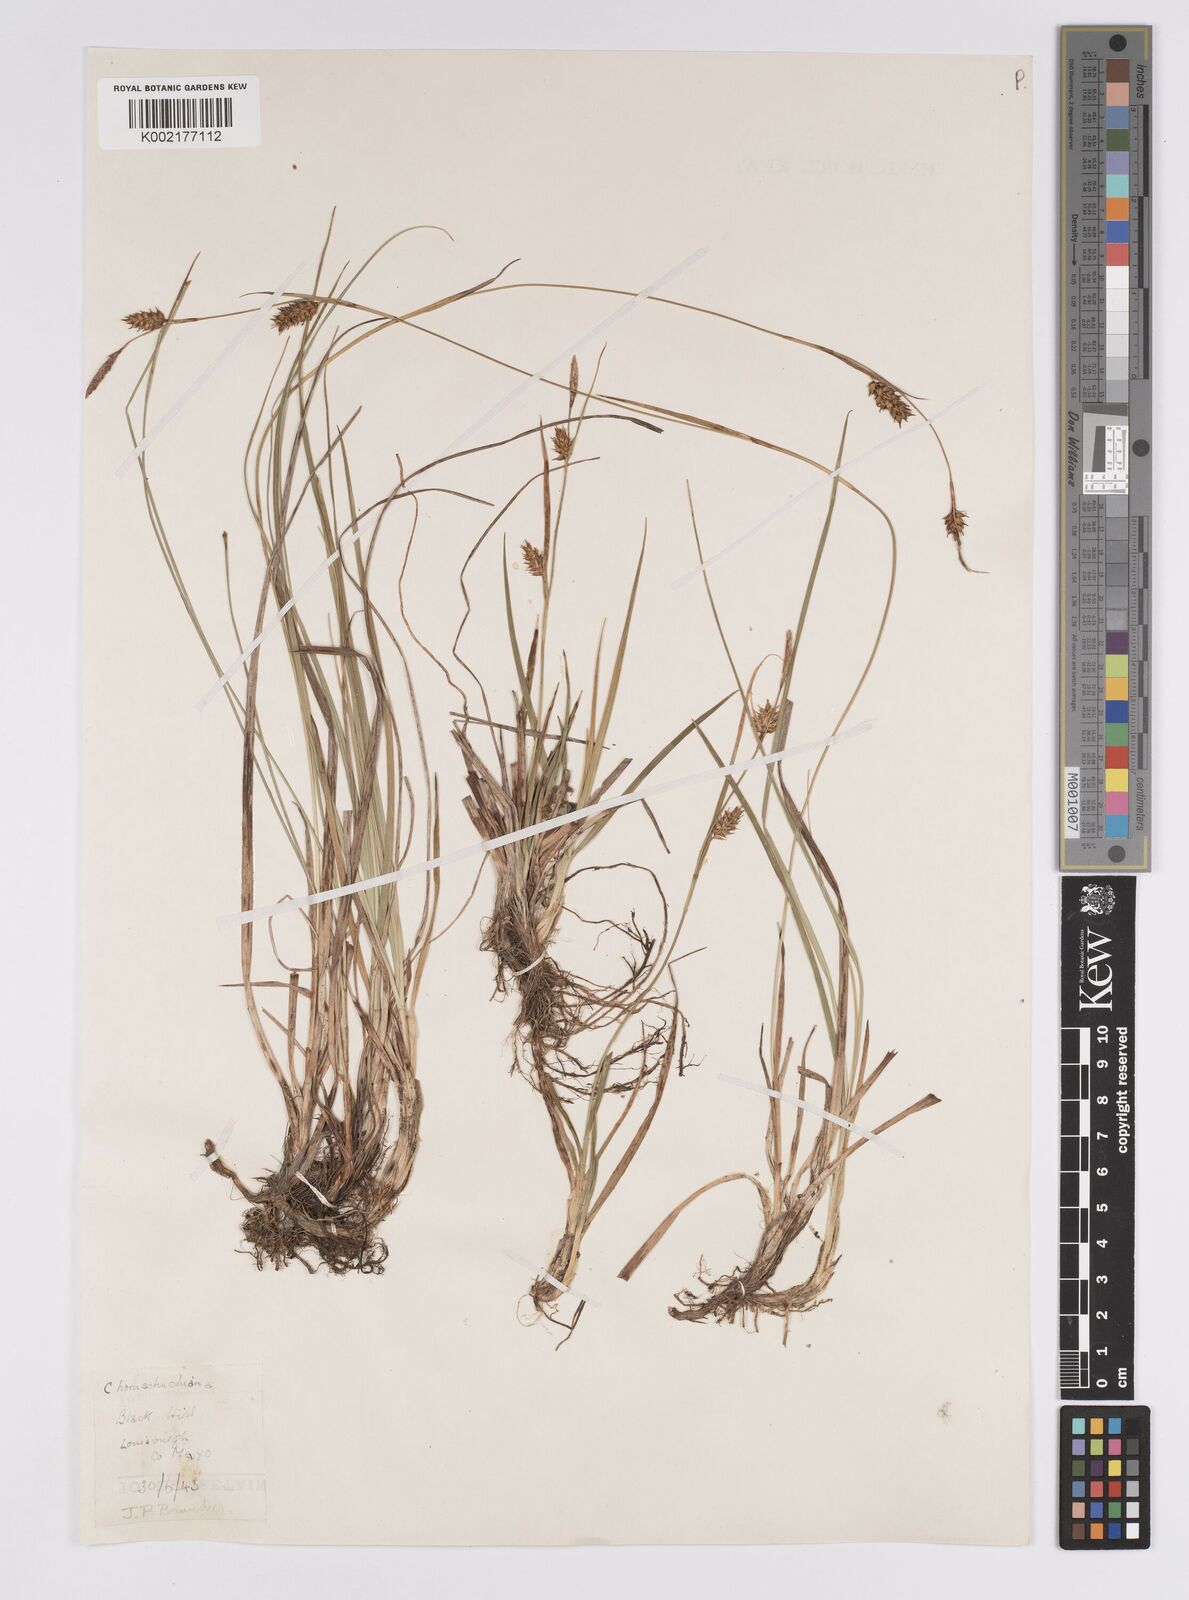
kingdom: Plantae
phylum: Tracheophyta
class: Liliopsida
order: Poales
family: Cyperaceae
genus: Carex
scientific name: Carex hostiana
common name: Tawny sedge
